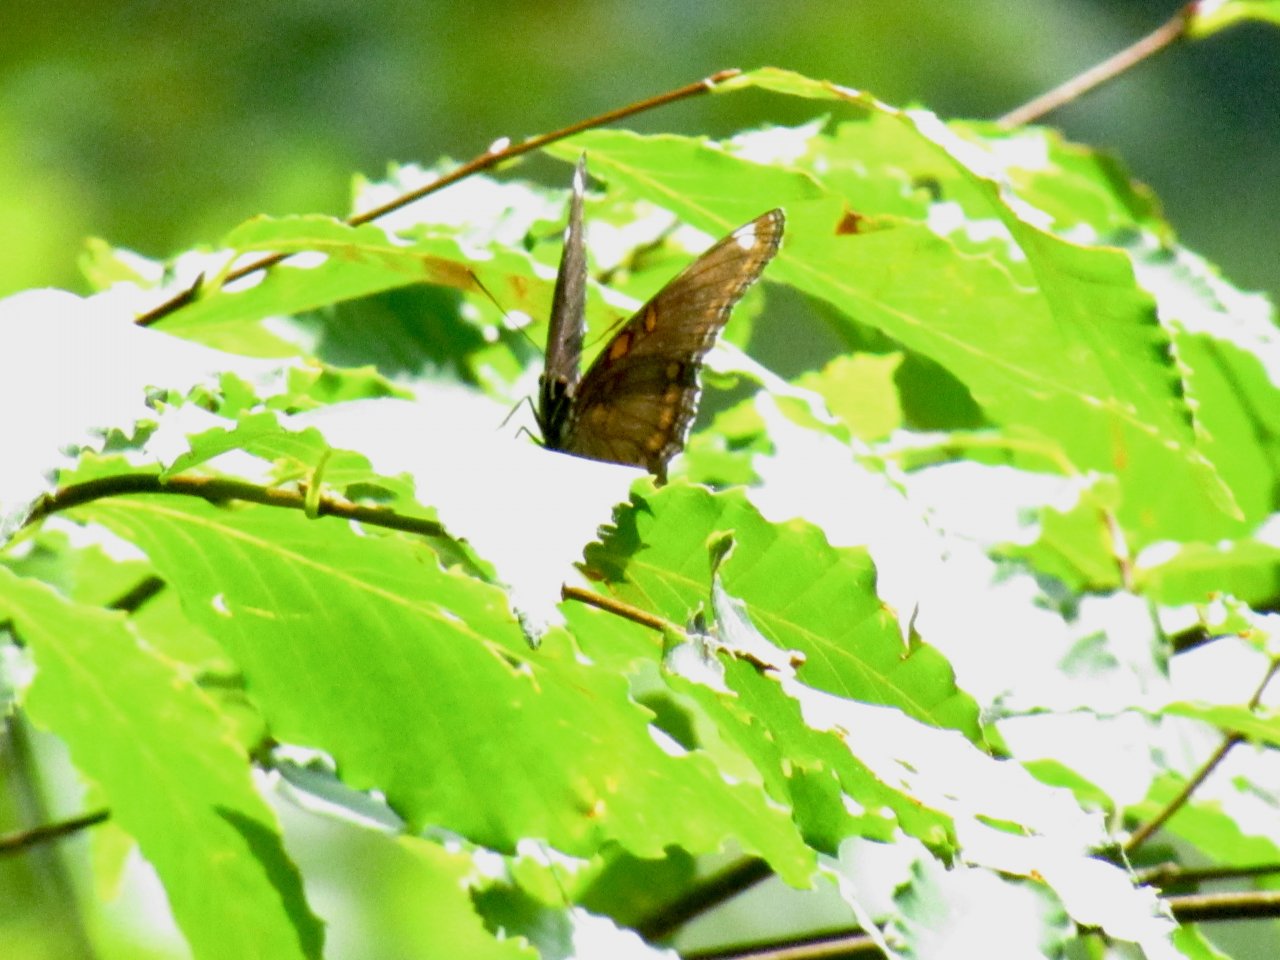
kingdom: Animalia
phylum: Arthropoda
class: Insecta
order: Lepidoptera
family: Nymphalidae
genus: Limenitis
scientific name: Limenitis arthemis
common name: Red-spotted Admiral
